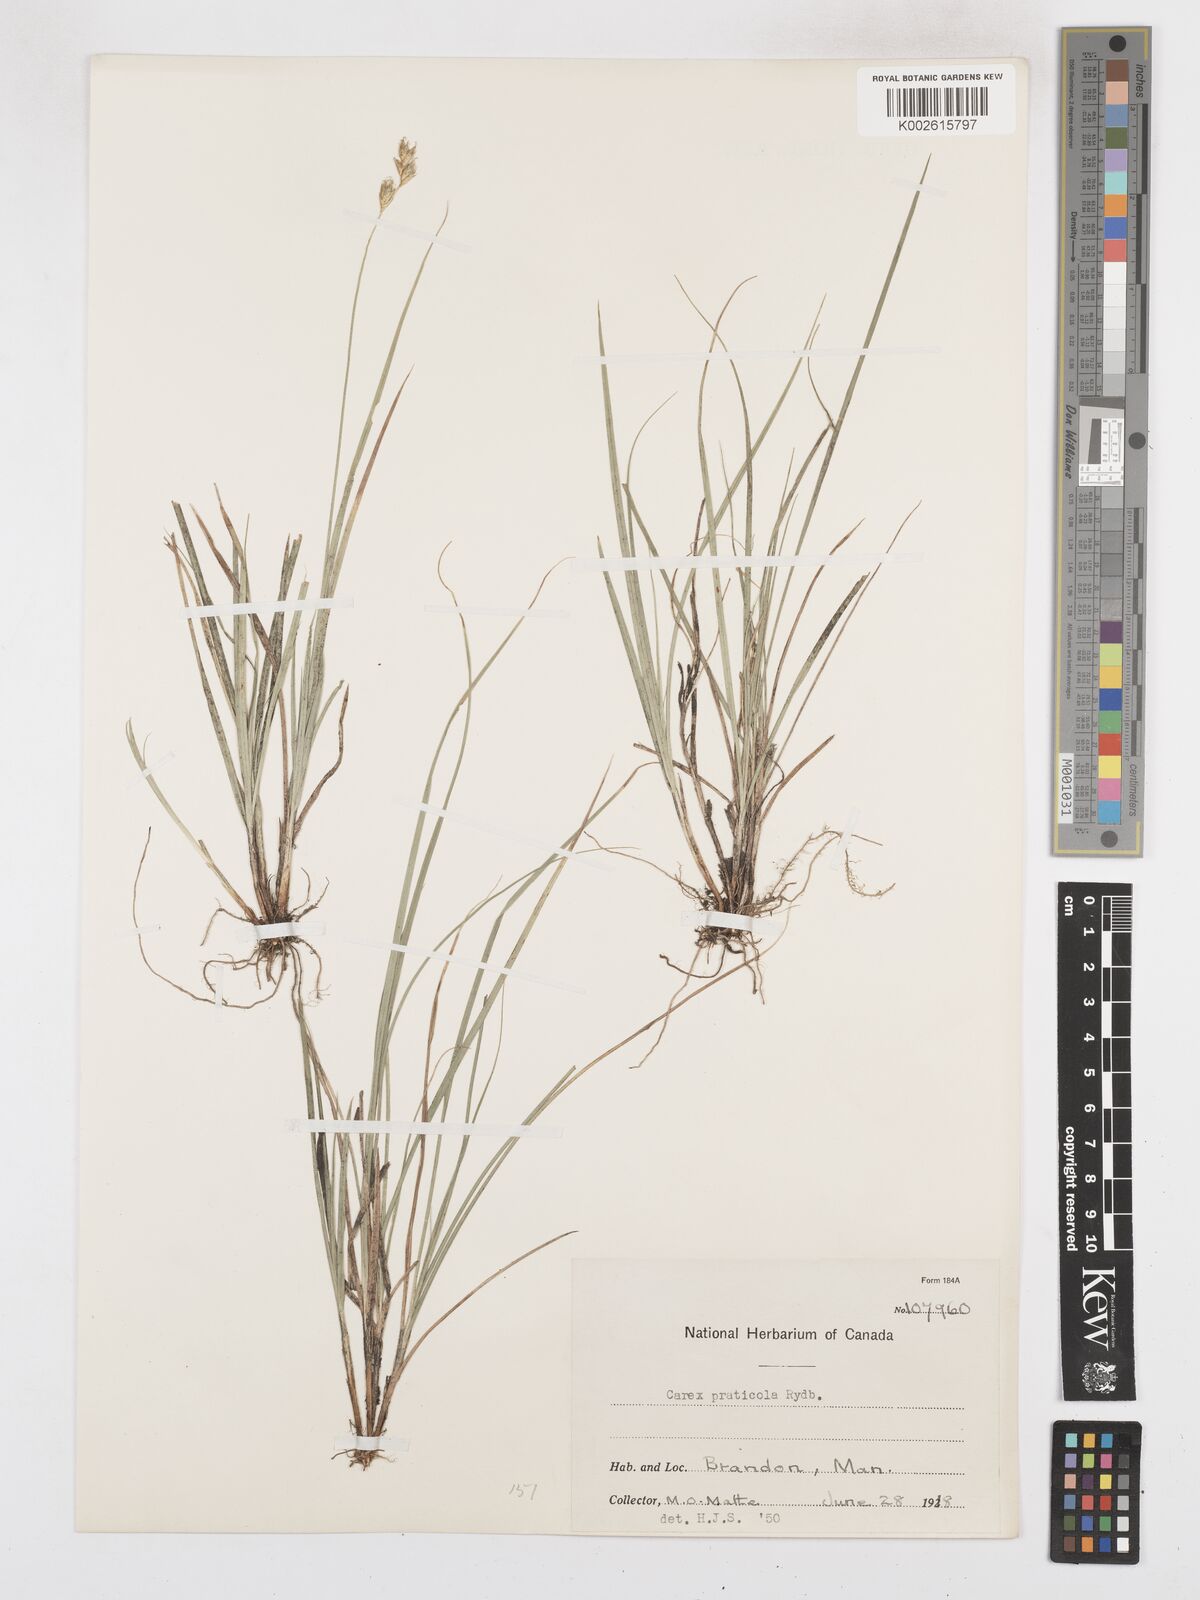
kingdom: Plantae
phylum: Tracheophyta
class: Liliopsida
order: Poales
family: Cyperaceae
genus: Carex
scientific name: Carex praticola
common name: Large-fruited oval sedge
